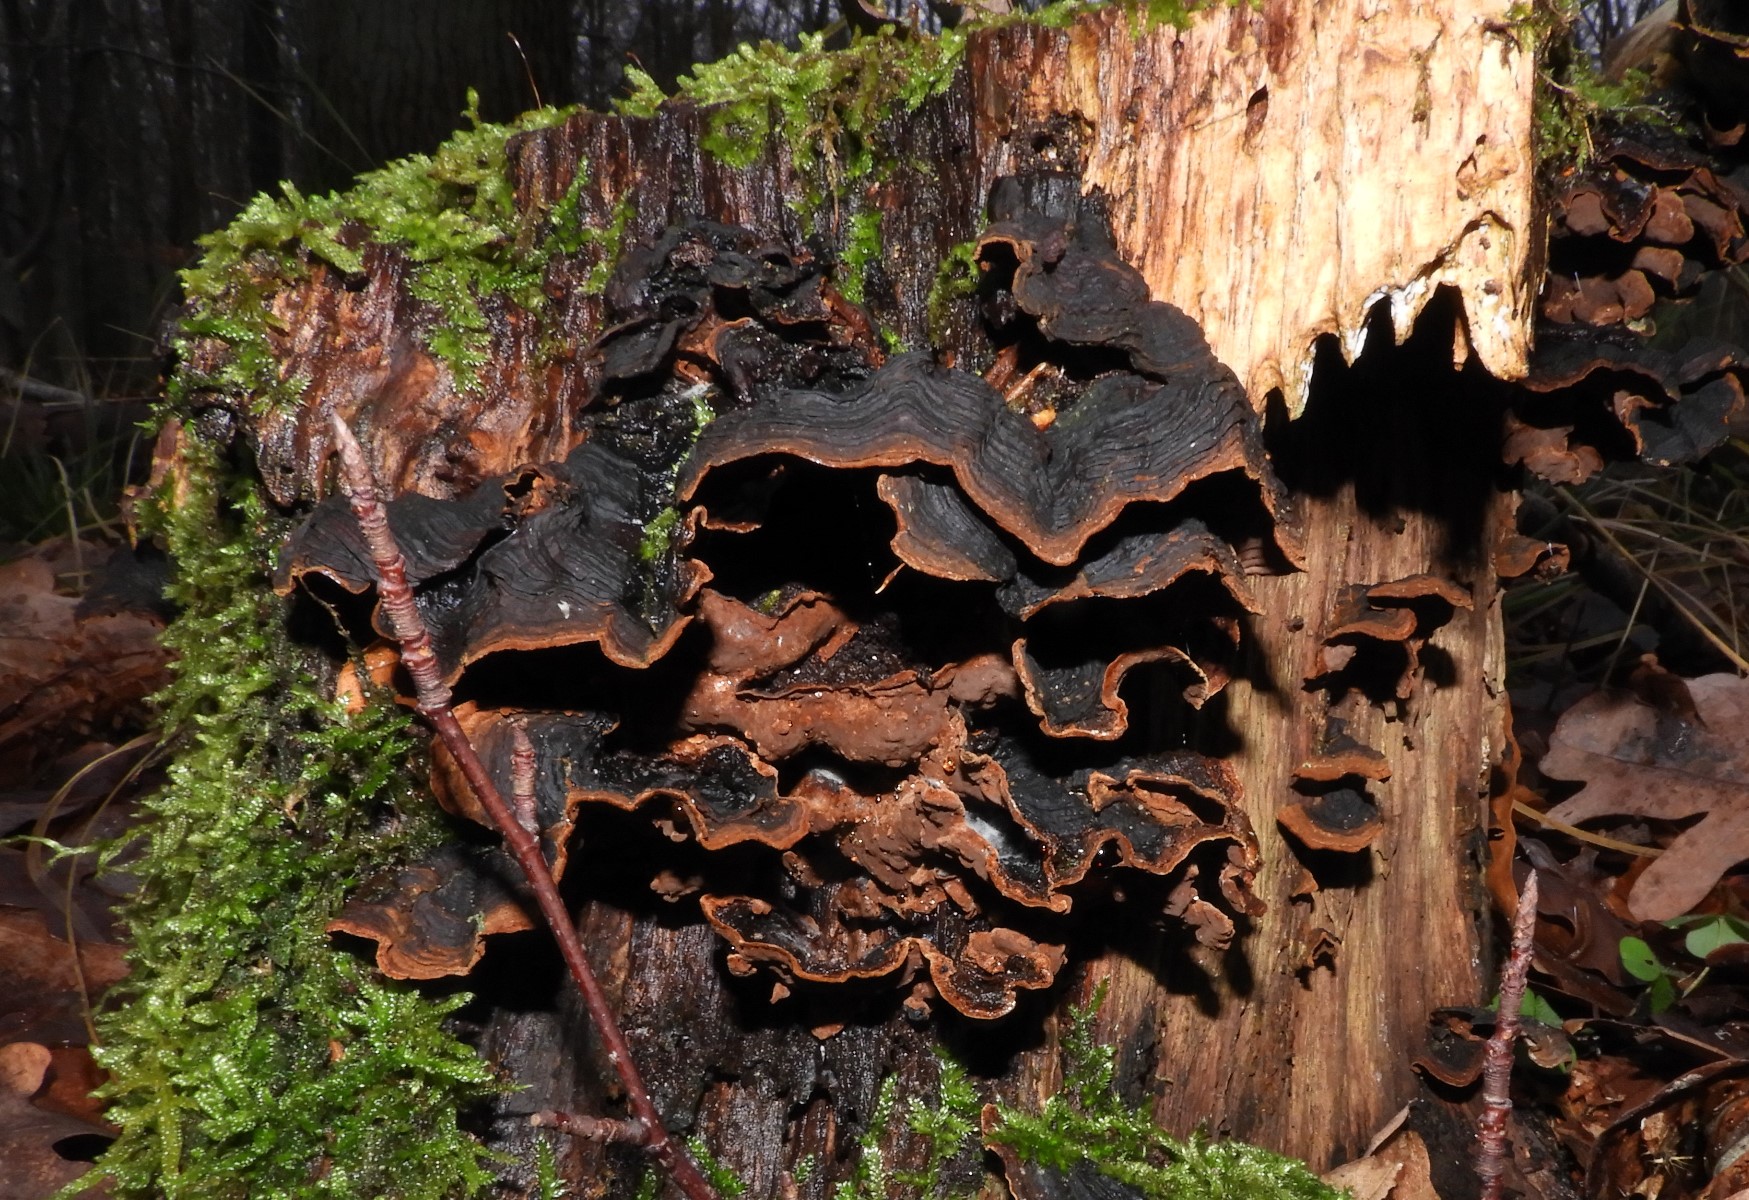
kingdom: Fungi
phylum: Basidiomycota
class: Agaricomycetes
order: Hymenochaetales
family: Hymenochaetaceae
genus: Hymenochaete
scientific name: Hymenochaete rubiginosa
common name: stiv ruslædersvamp
